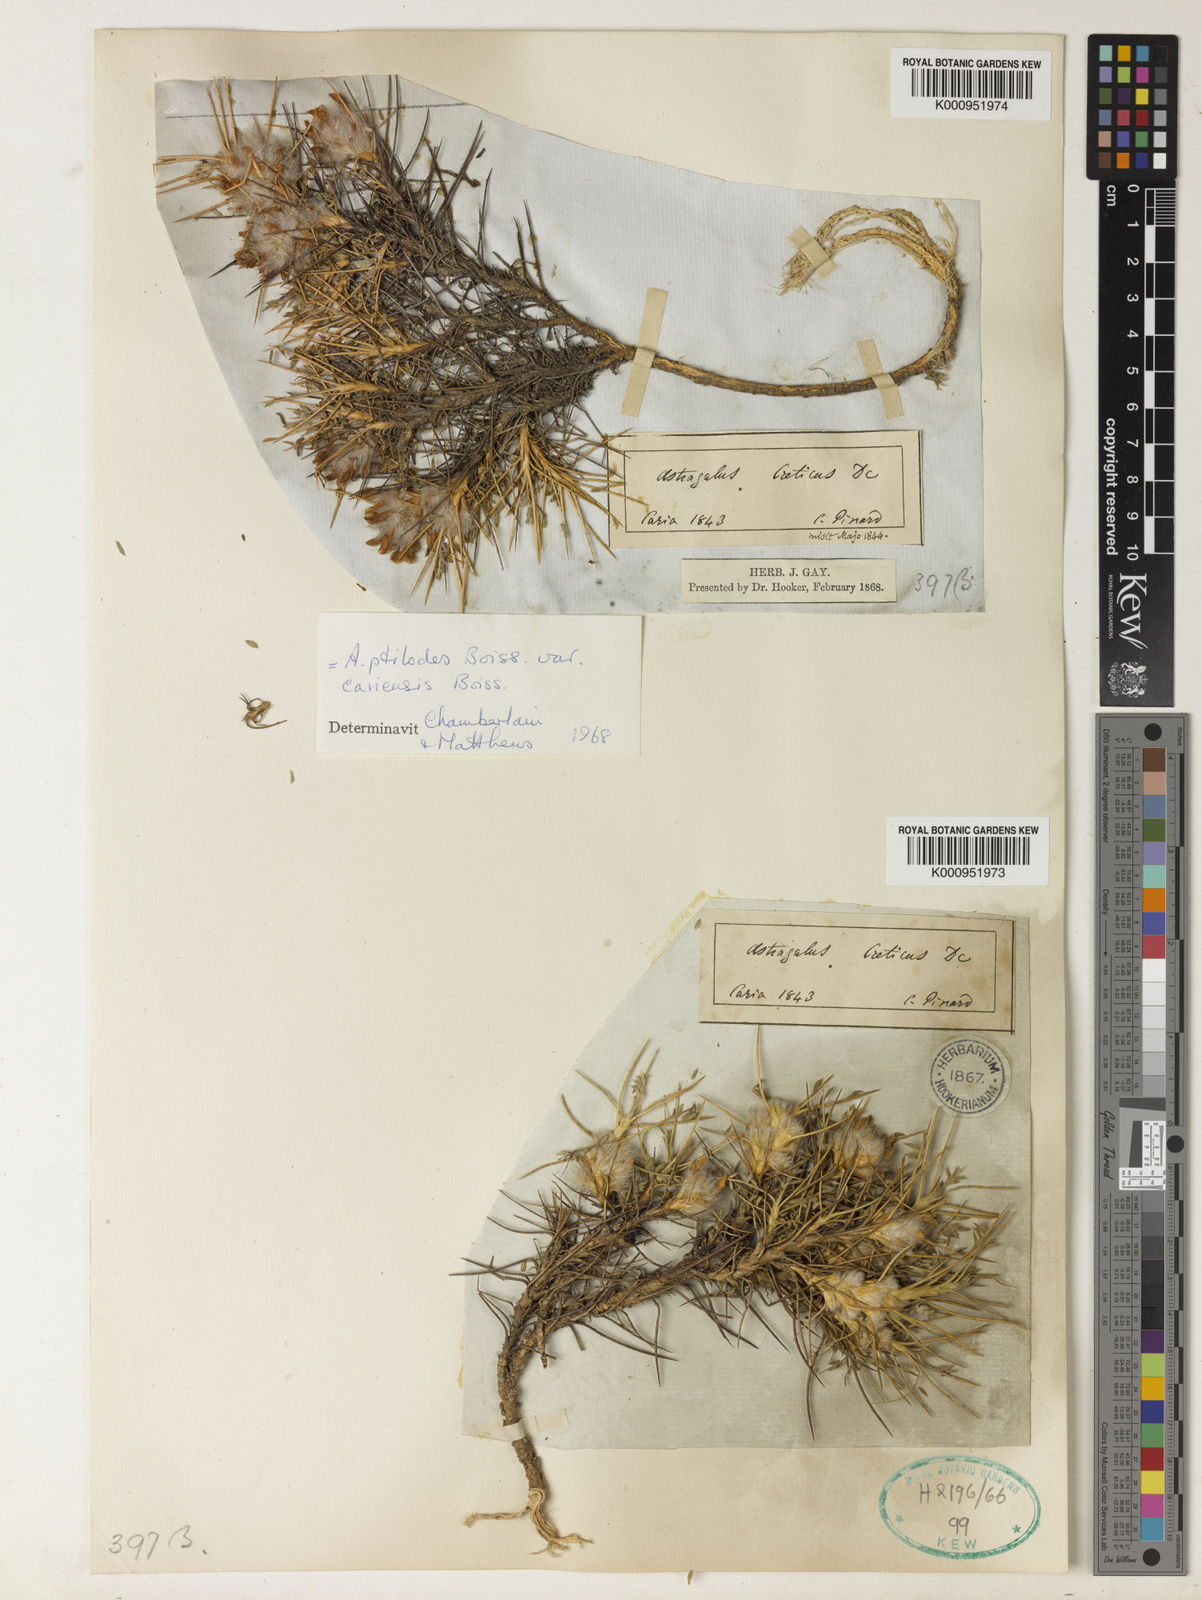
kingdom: Plantae
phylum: Tracheophyta
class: Magnoliopsida
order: Fabales
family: Fabaceae
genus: Astragalus
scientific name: Astragalus condensatus
